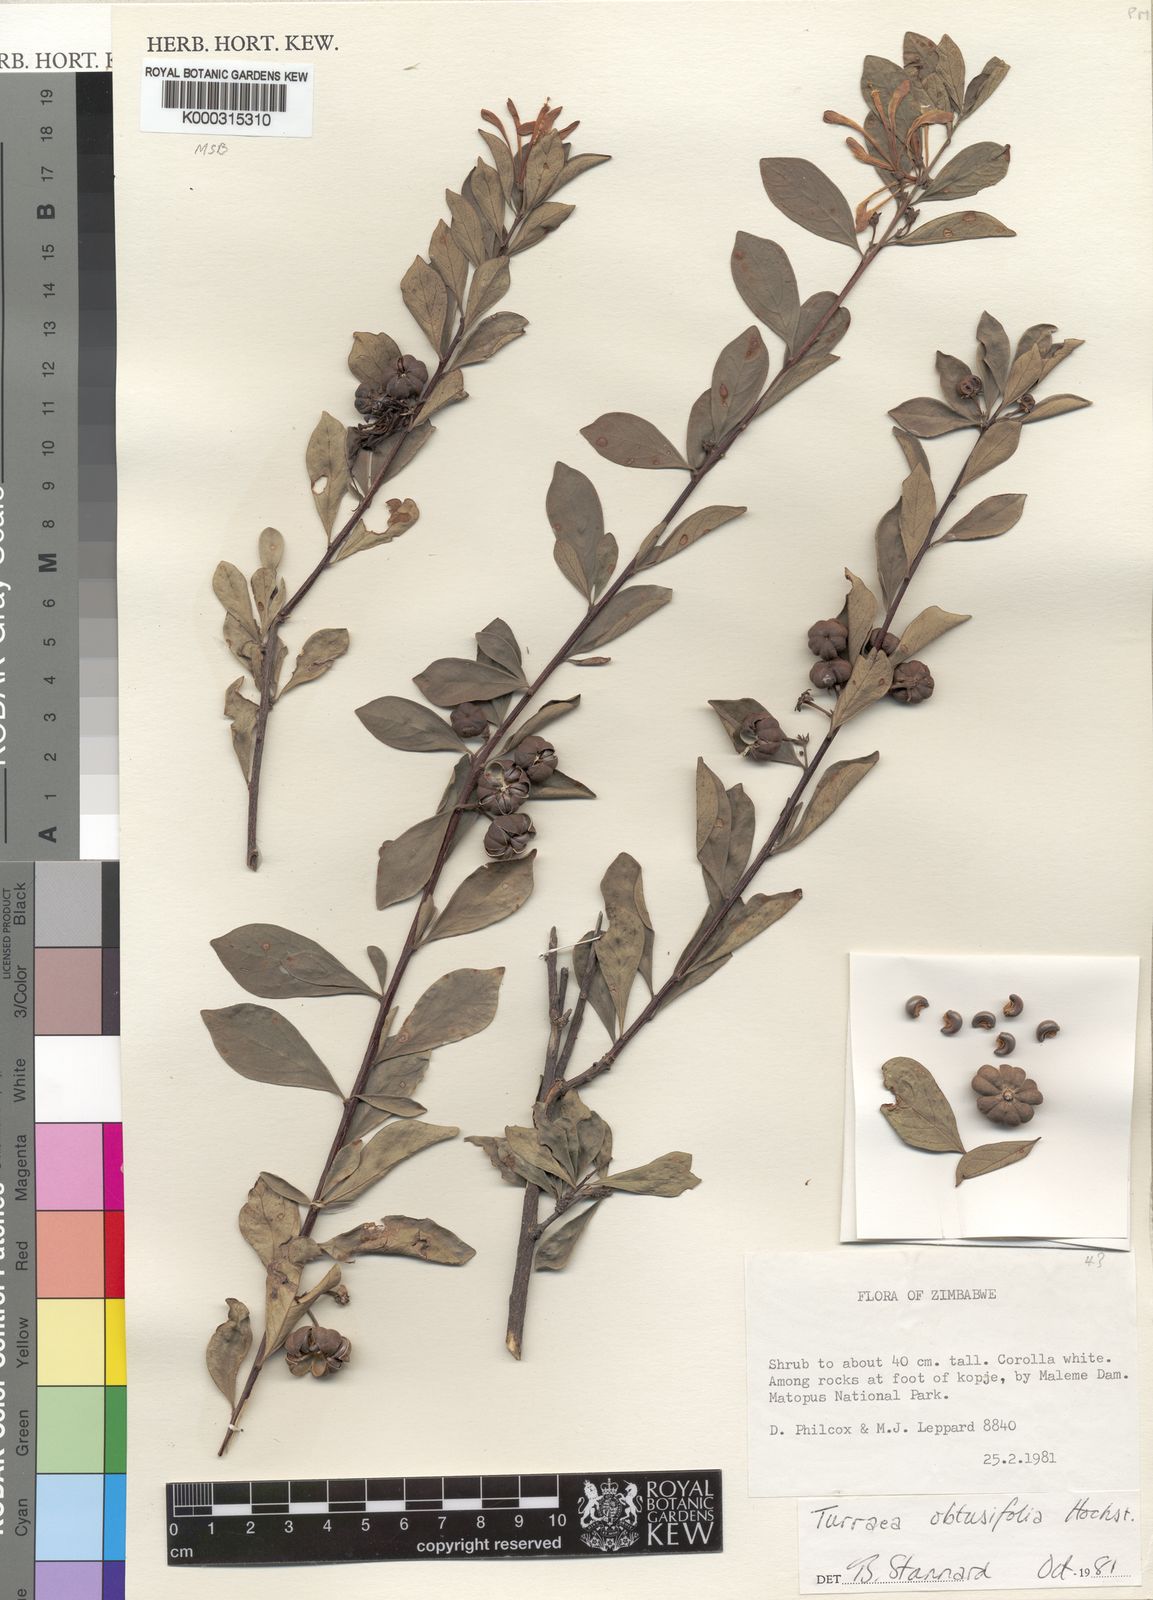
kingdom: Plantae
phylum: Tracheophyta
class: Magnoliopsida
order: Sapindales
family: Meliaceae
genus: Turraea
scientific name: Turraea obtusifolia
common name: Small honeysuckle tree
